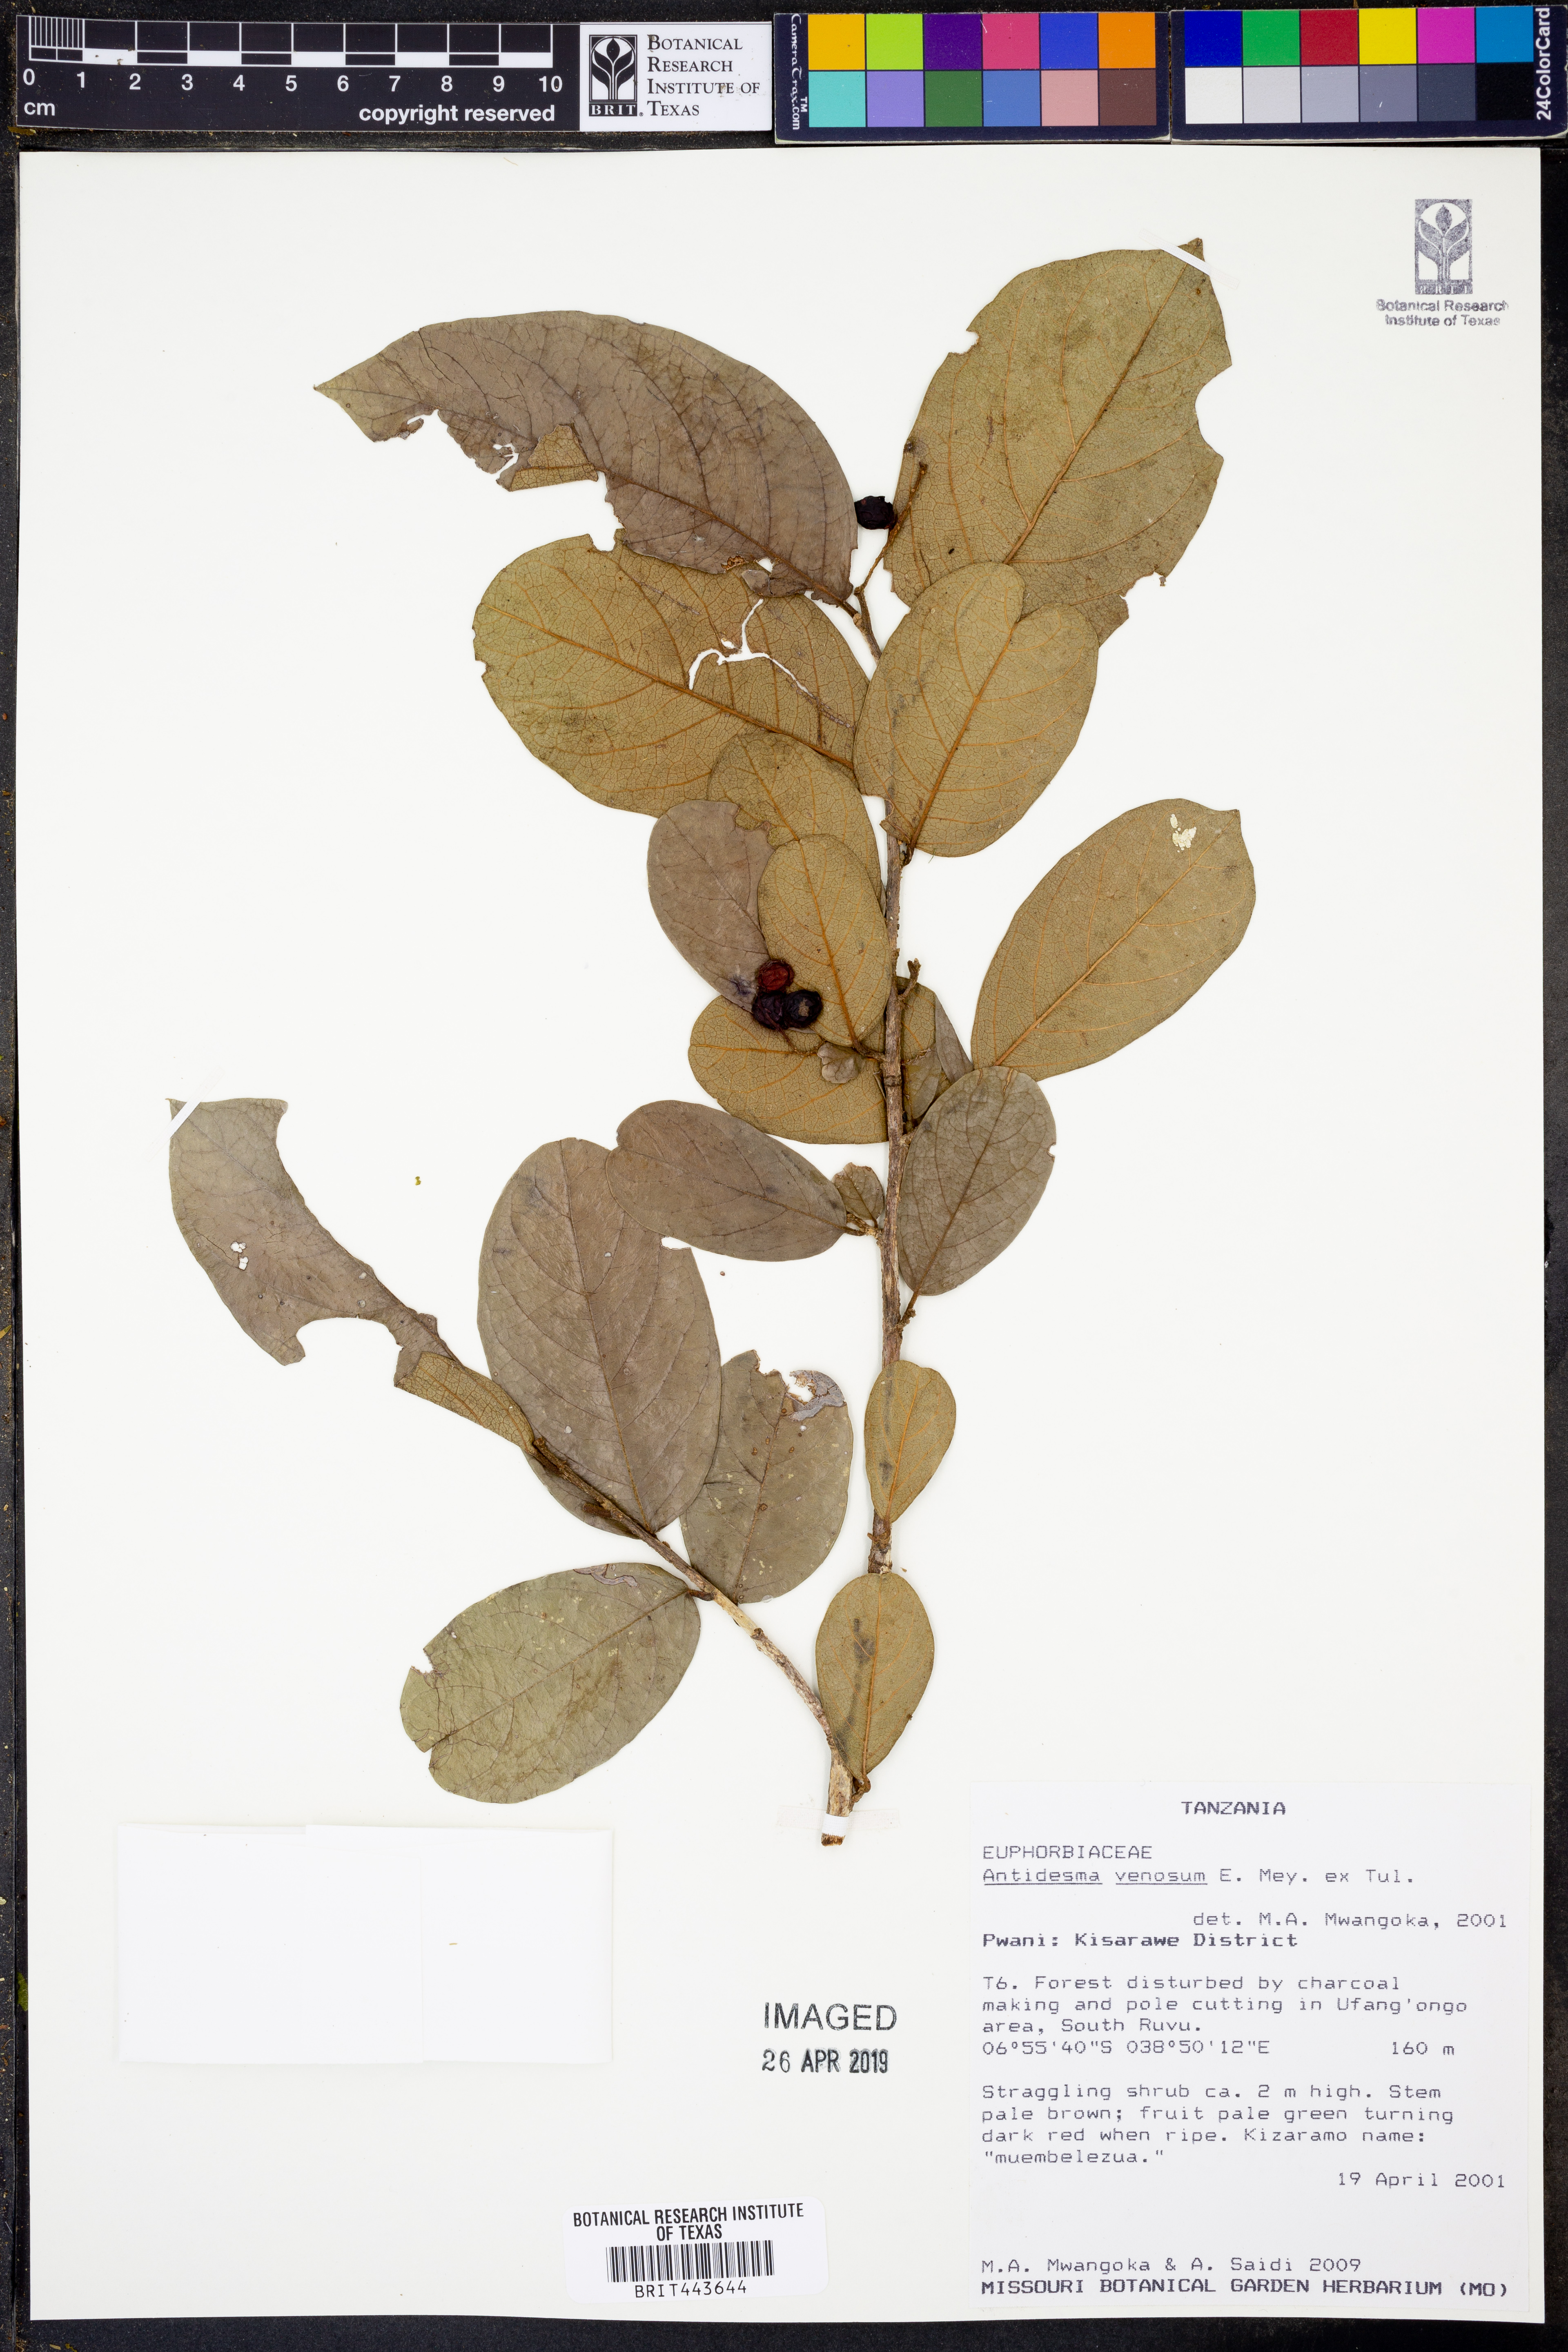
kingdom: Plantae
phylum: Tracheophyta
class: Magnoliopsida
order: Malpighiales
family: Phyllanthaceae
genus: Antidesma
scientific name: Antidesma venosum
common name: Tassel-berry
